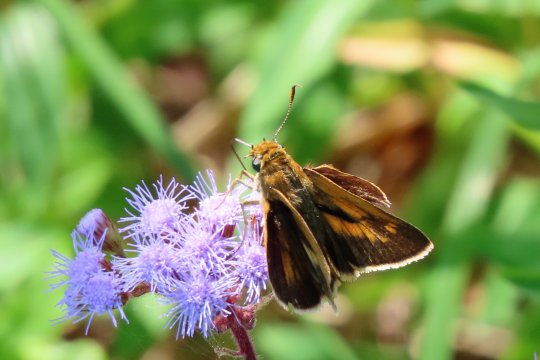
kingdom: Animalia
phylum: Arthropoda
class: Insecta
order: Lepidoptera
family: Hesperiidae
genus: Poanes
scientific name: Poanes aaroni
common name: Aaron's Skipper
